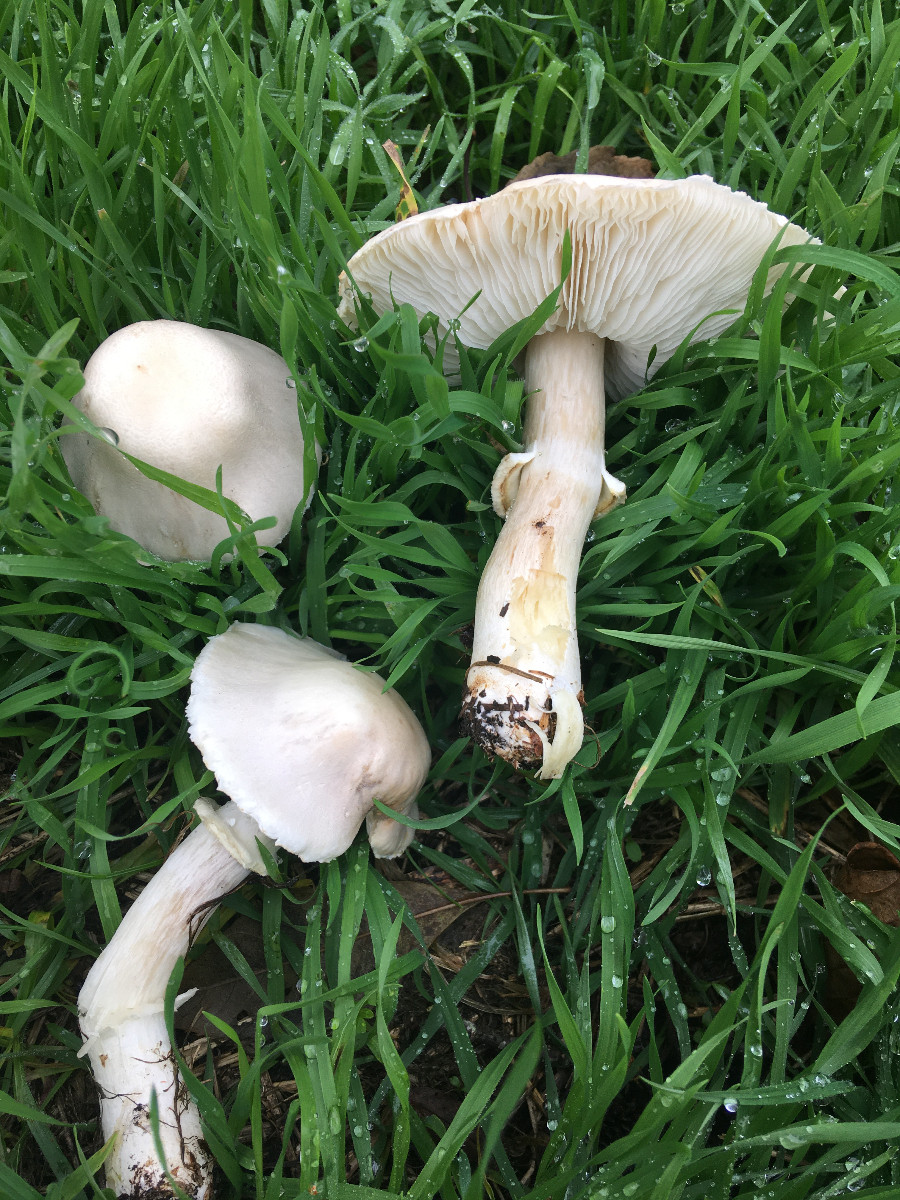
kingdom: Fungi
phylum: Basidiomycota
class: Agaricomycetes
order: Agaricales
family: Agaricaceae
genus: Leucoagaricus
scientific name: Leucoagaricus leucothites
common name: rosabladet silkehat
